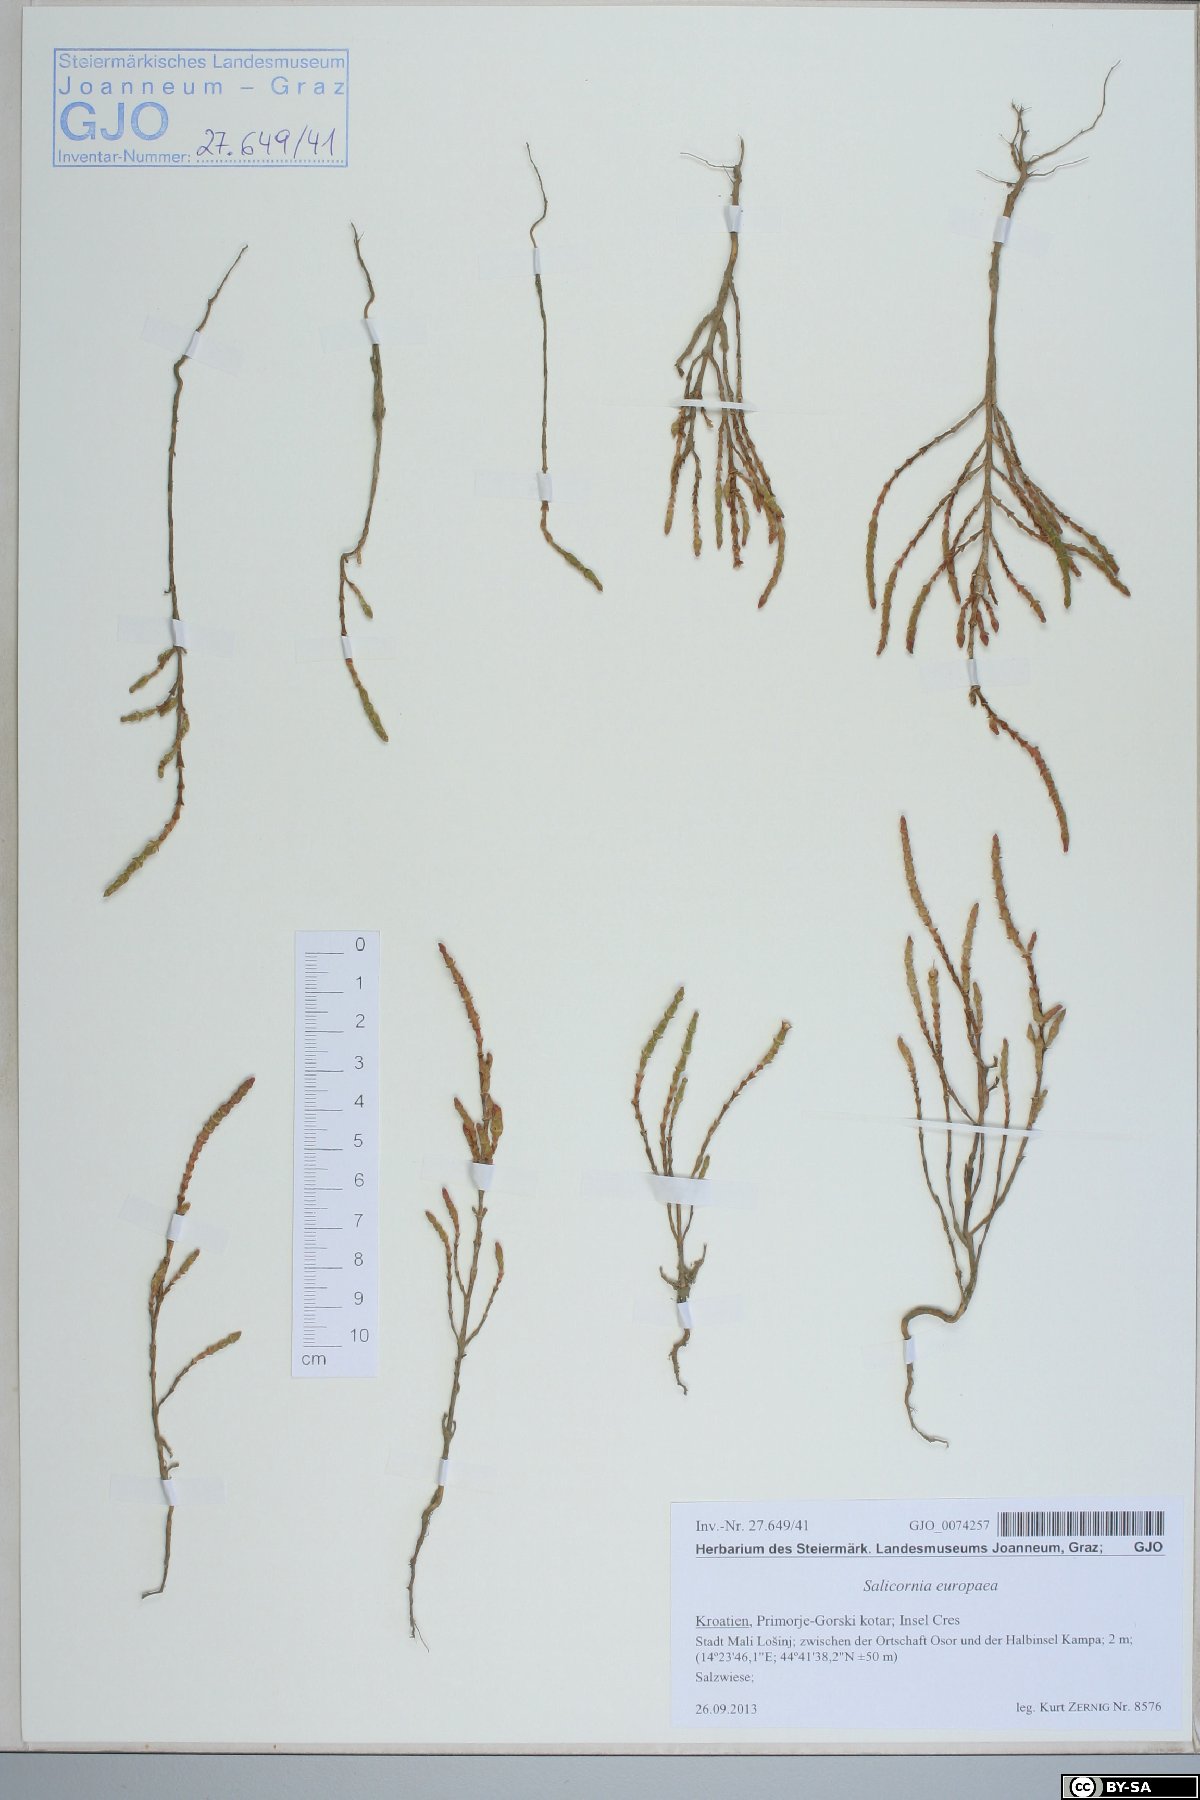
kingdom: Plantae
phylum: Tracheophyta
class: Magnoliopsida
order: Caryophyllales
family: Amaranthaceae
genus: Salicornia
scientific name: Salicornia europaea
